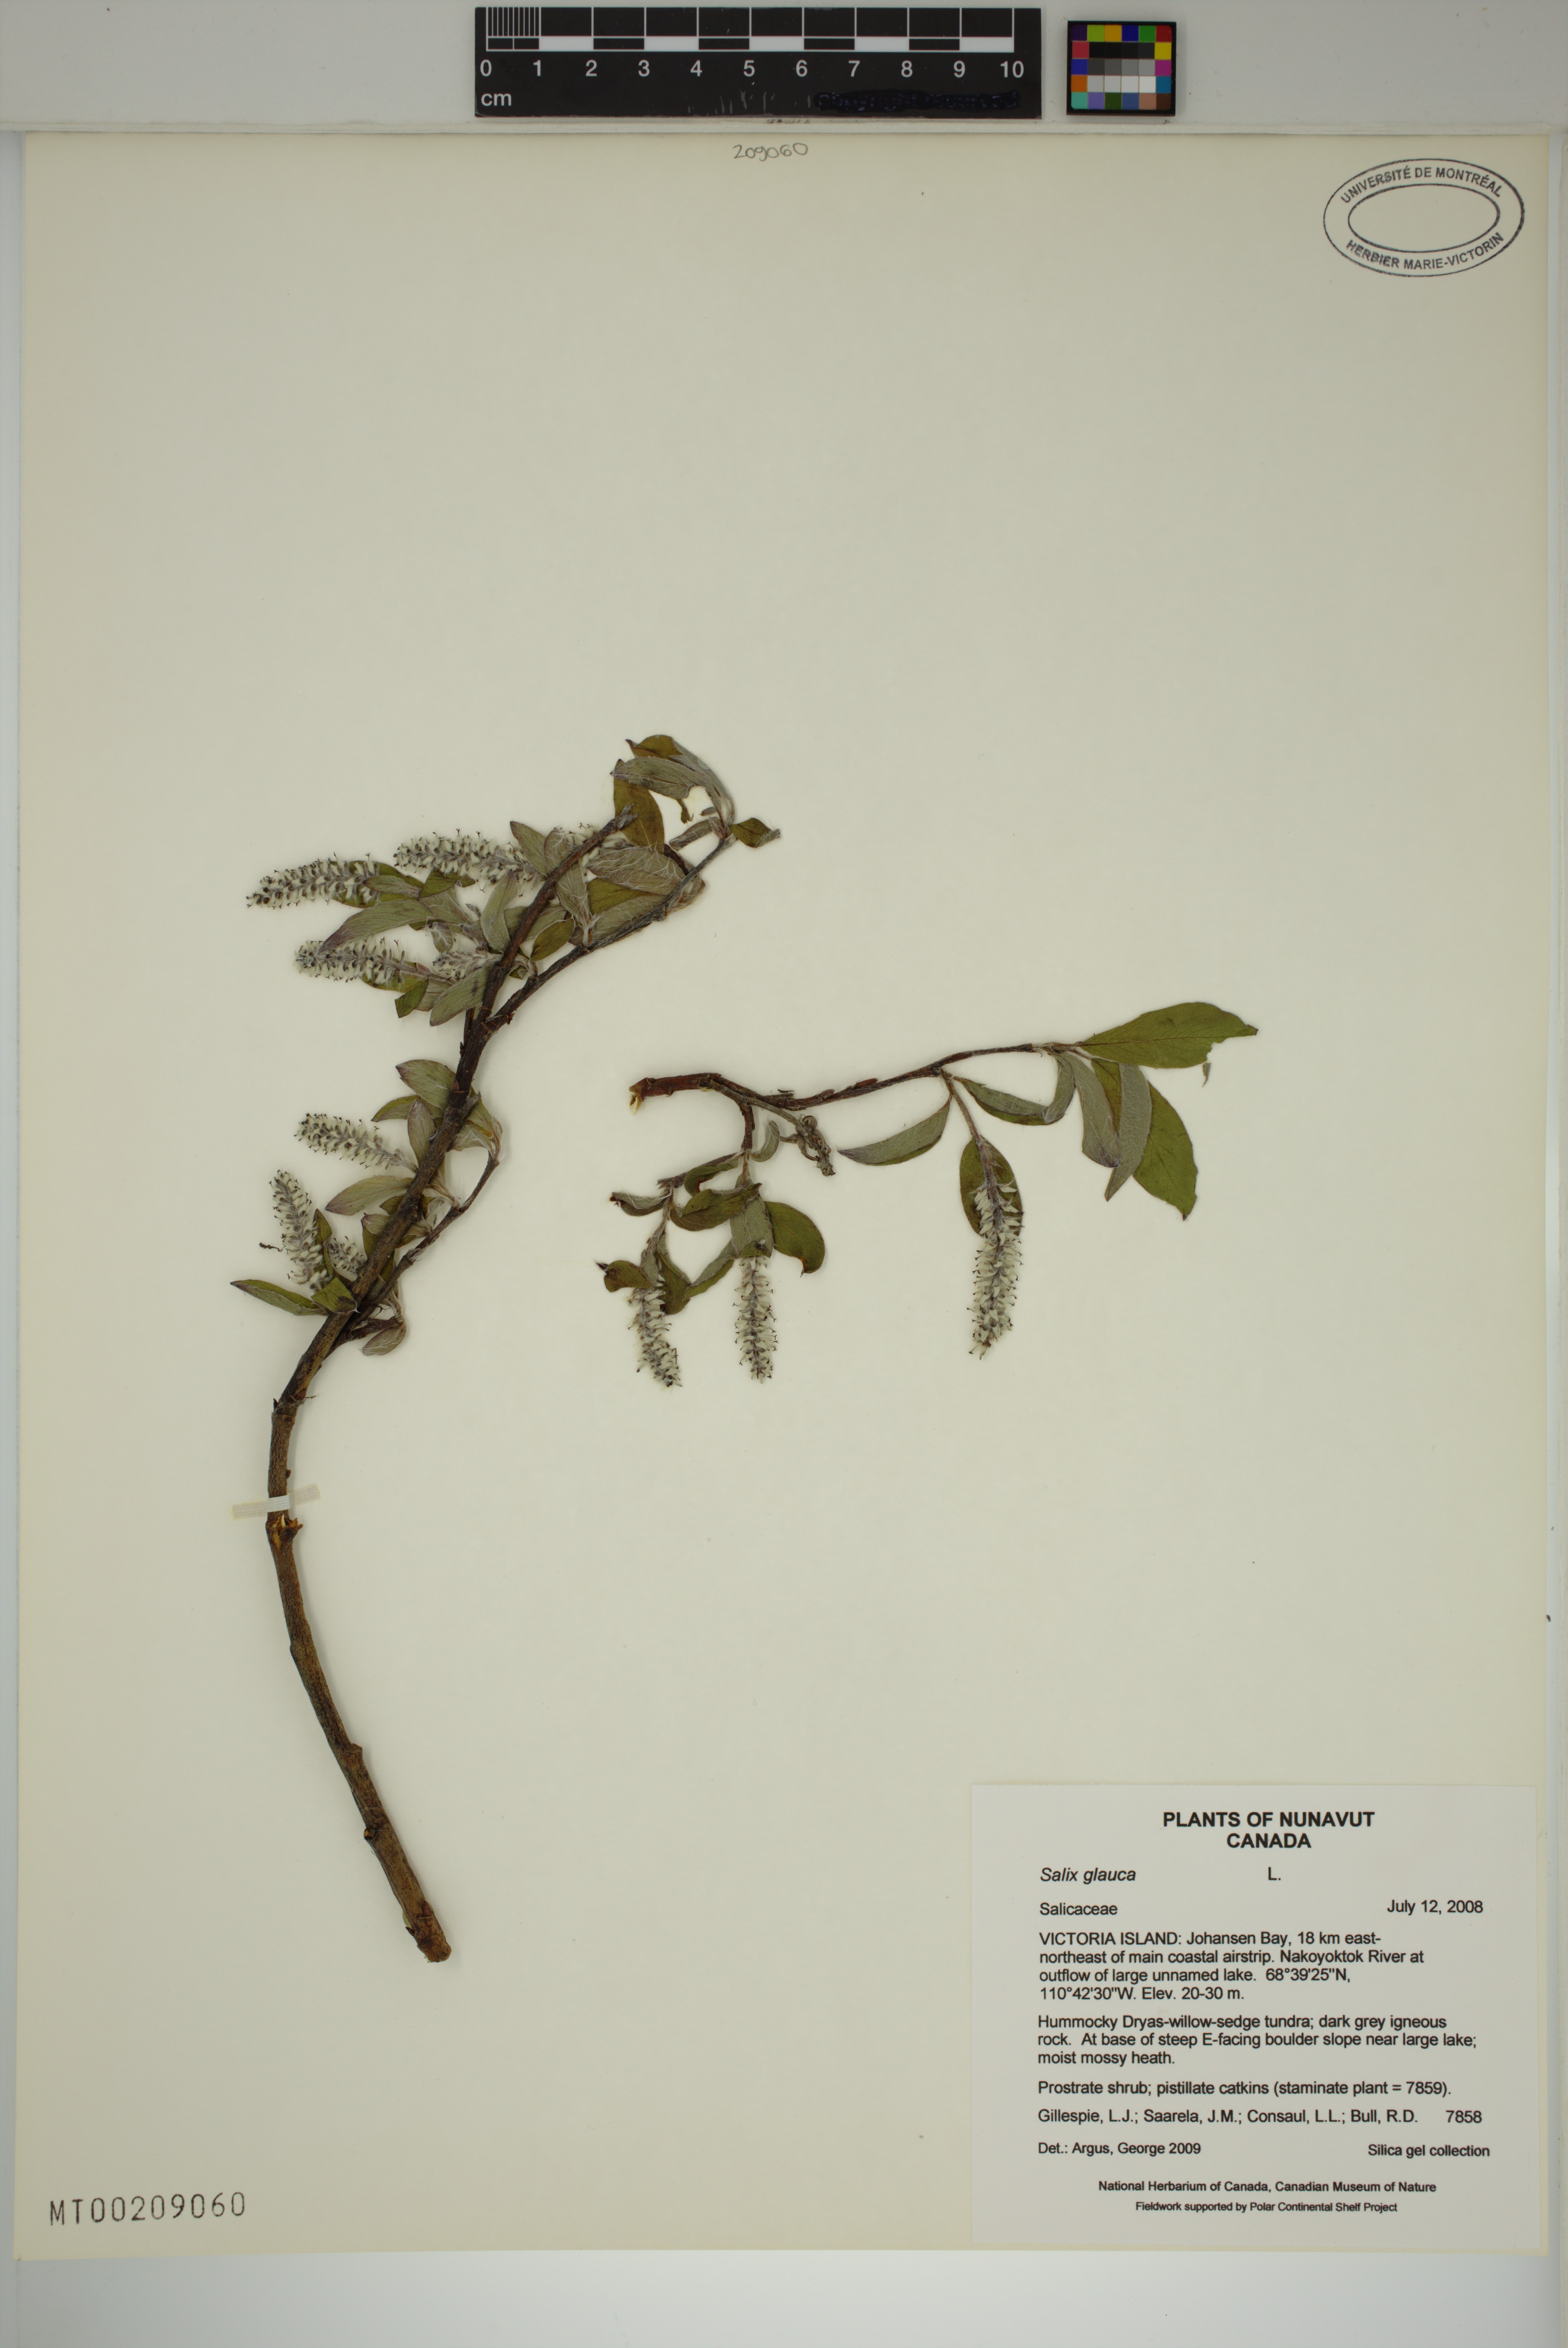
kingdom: Plantae
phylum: Tracheophyta
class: Magnoliopsida
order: Malpighiales
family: Salicaceae
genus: Salix
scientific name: Salix glauca
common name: Glaucous willow
